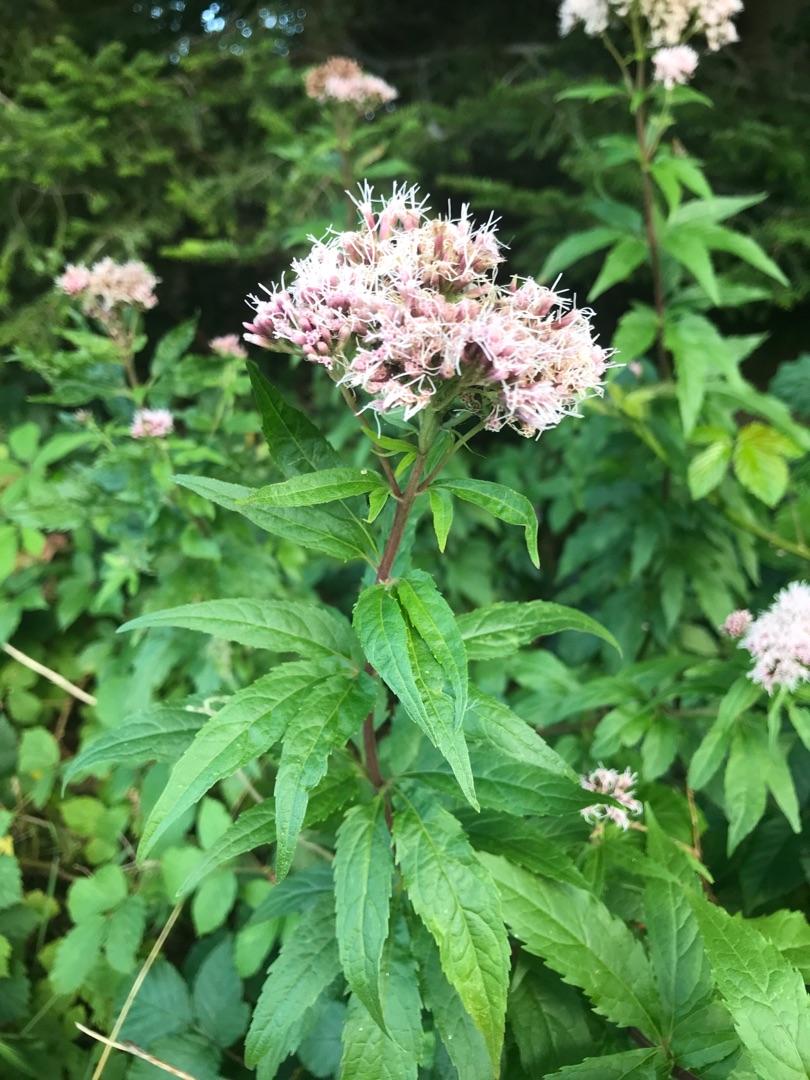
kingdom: Plantae
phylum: Tracheophyta
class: Magnoliopsida
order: Asterales
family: Asteraceae
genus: Eupatorium
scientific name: Eupatorium cannabinum
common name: Hjortetrøst
